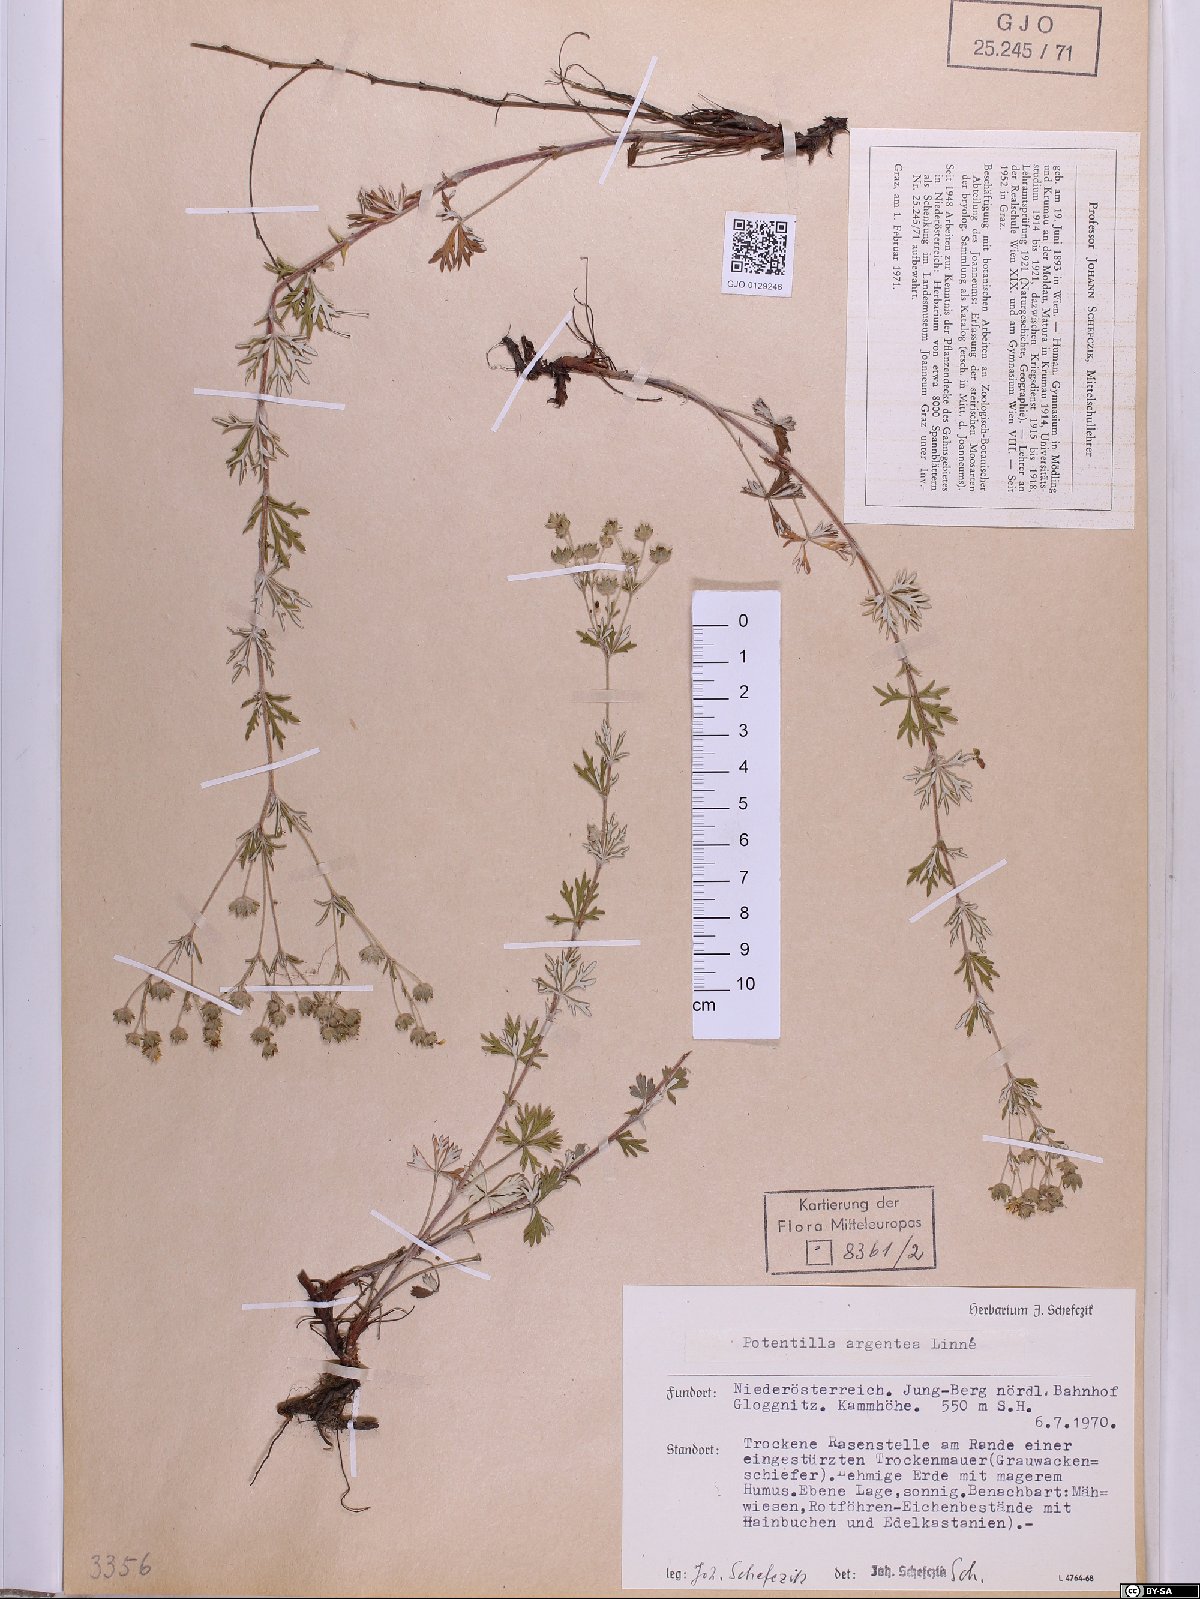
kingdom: Plantae
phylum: Tracheophyta
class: Magnoliopsida
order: Rosales
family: Rosaceae
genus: Potentilla
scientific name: Potentilla argentea
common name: Hoary cinquefoil
